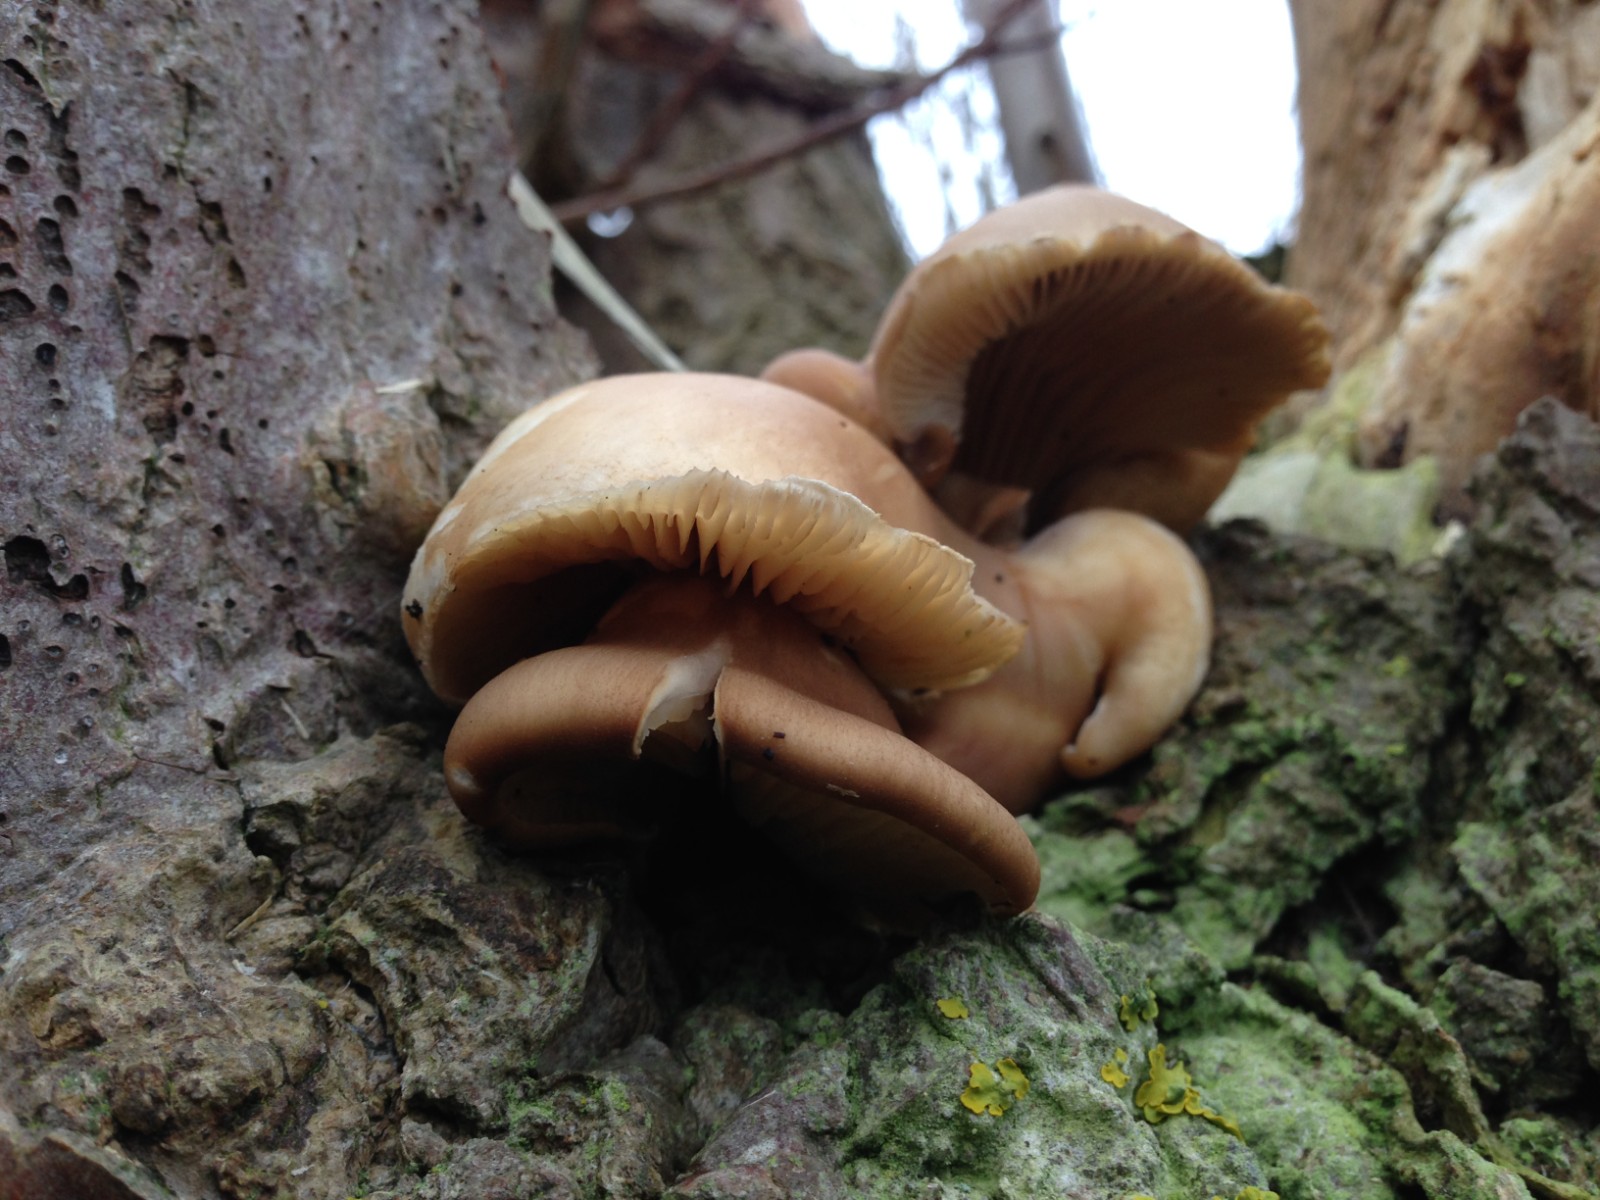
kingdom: Fungi
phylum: Basidiomycota
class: Agaricomycetes
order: Agaricales
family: Pleurotaceae
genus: Pleurotus
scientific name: Pleurotus ostreatus
